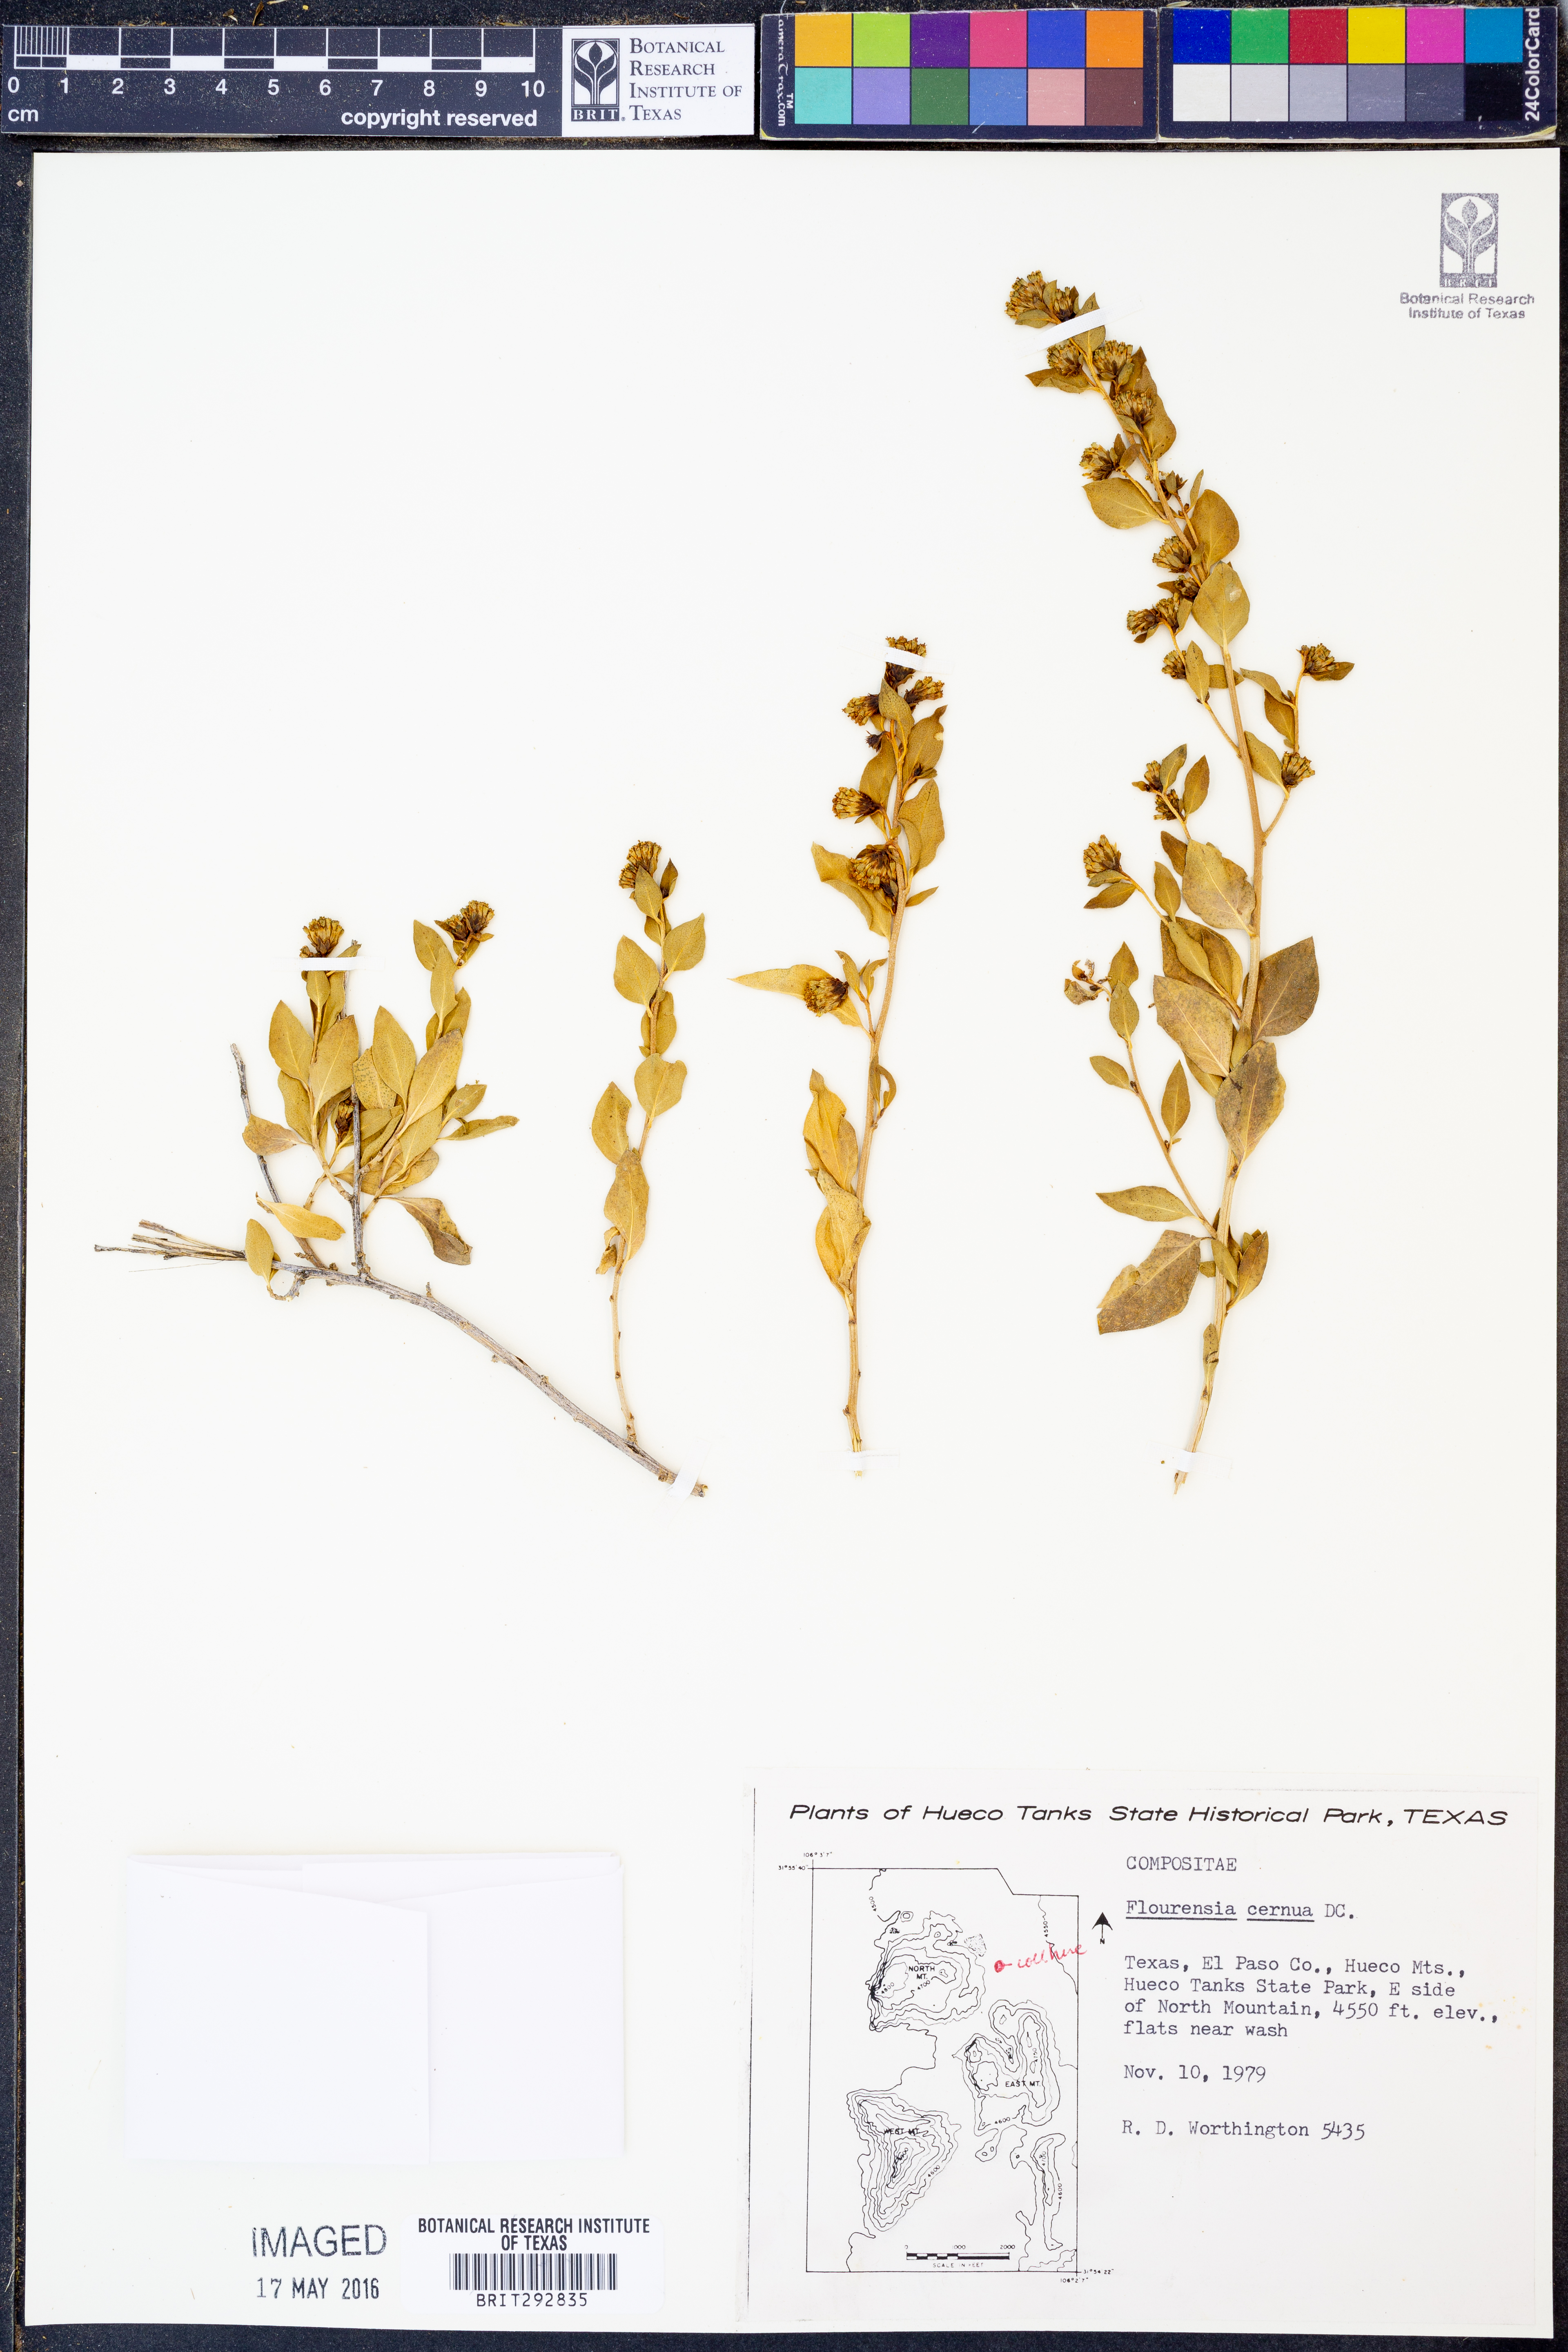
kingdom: Plantae
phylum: Tracheophyta
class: Magnoliopsida
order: Asterales
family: Asteraceae
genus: Flourensia
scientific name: Flourensia cernua
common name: Varnishbush
